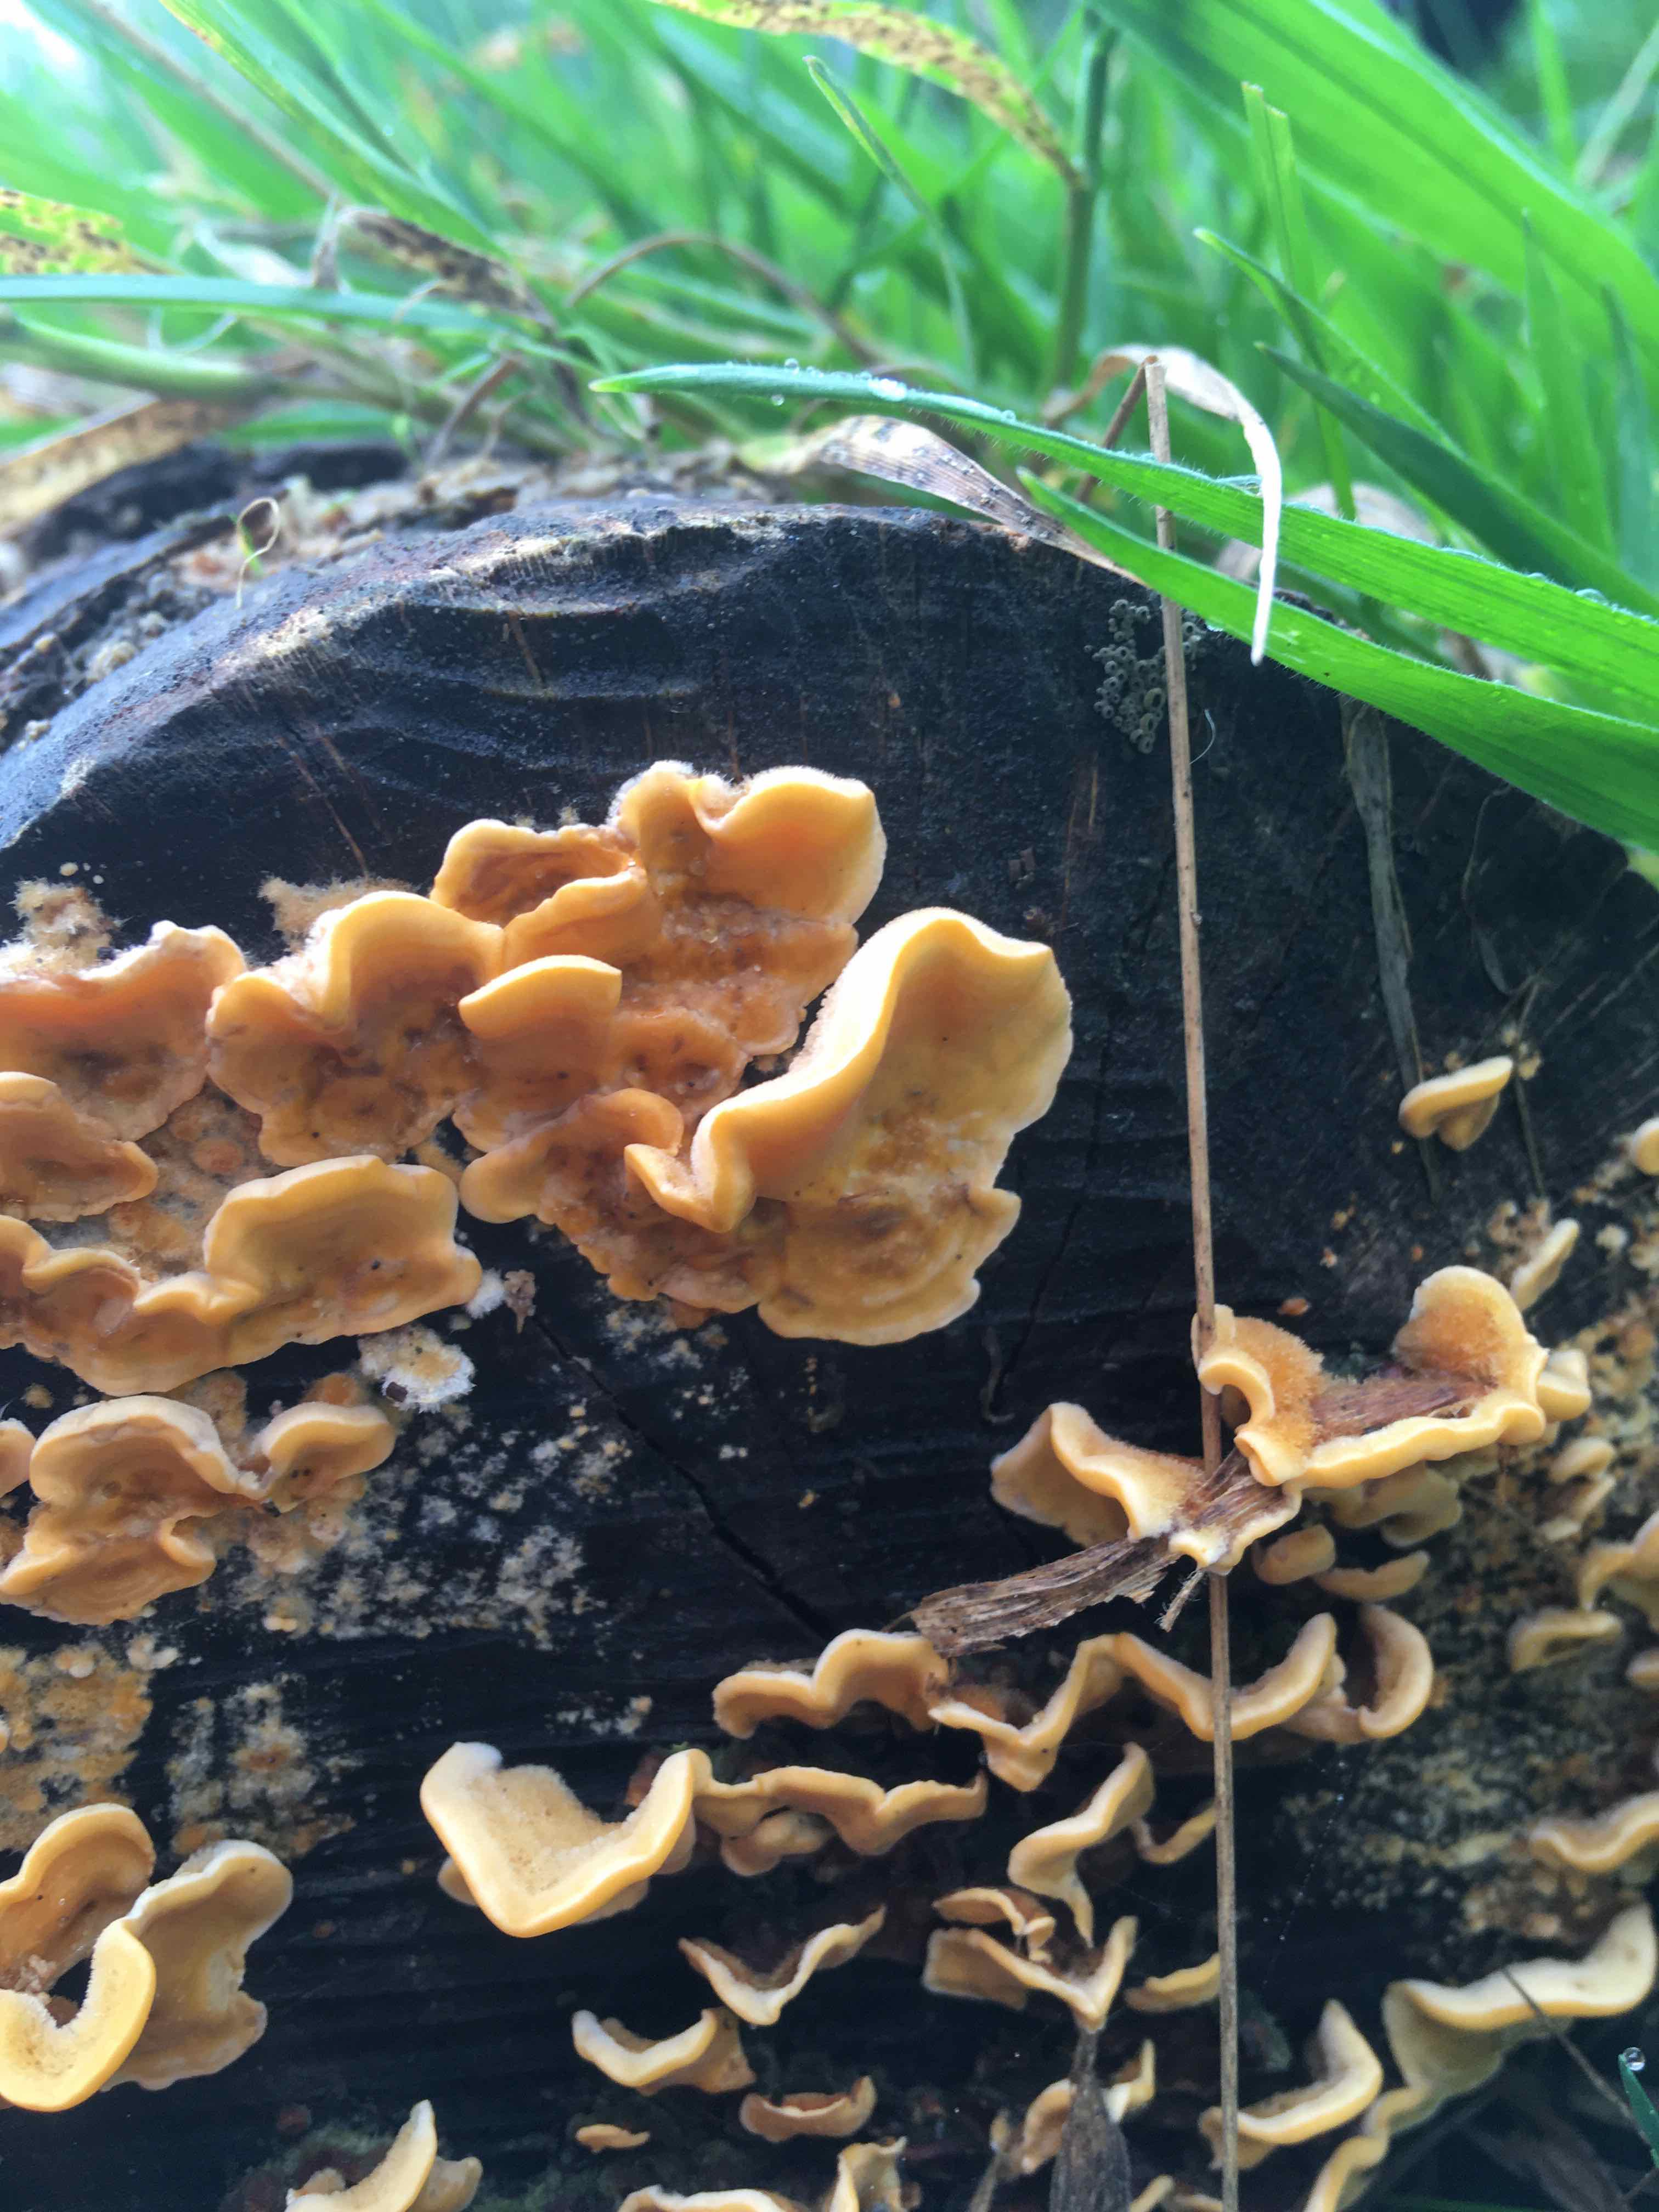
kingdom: Fungi
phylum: Basidiomycota
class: Agaricomycetes
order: Russulales
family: Stereaceae
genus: Stereum
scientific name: Stereum hirsutum
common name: håret lædersvamp
